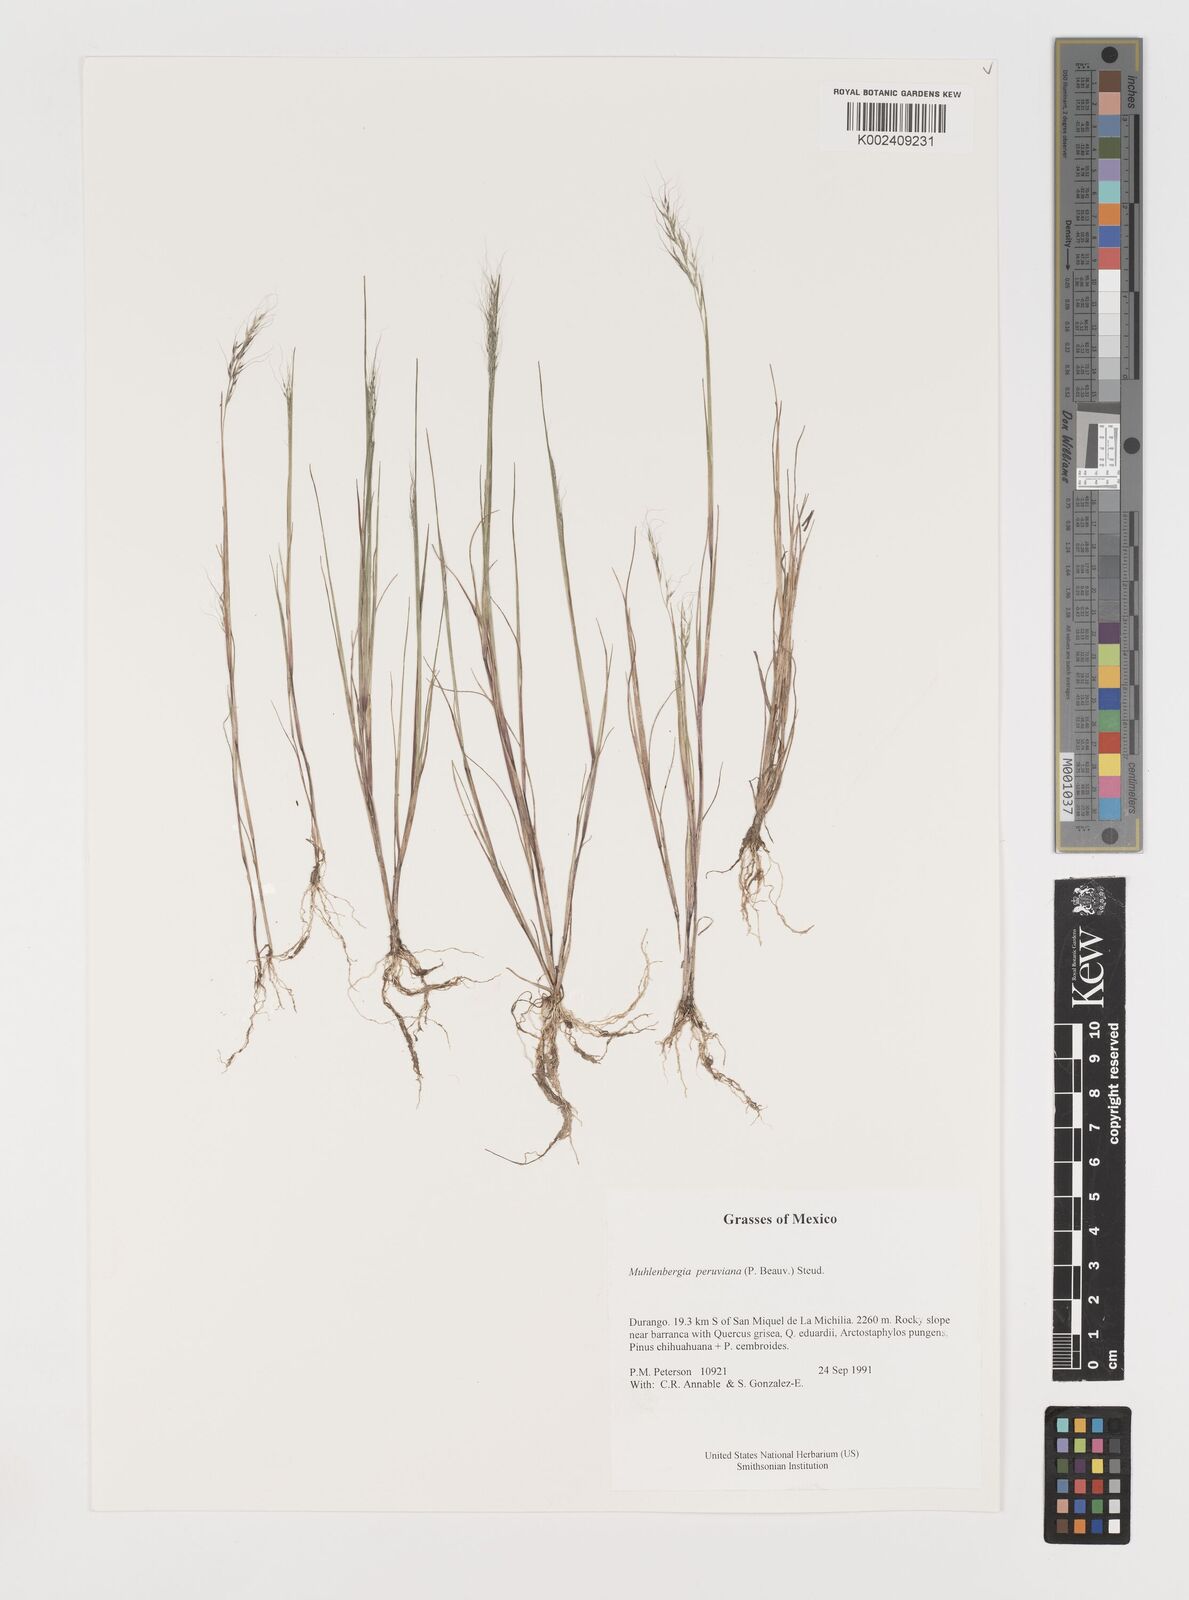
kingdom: Plantae
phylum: Tracheophyta
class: Liliopsida
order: Poales
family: Poaceae
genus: Muhlenbergia
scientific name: Muhlenbergia peruviana
